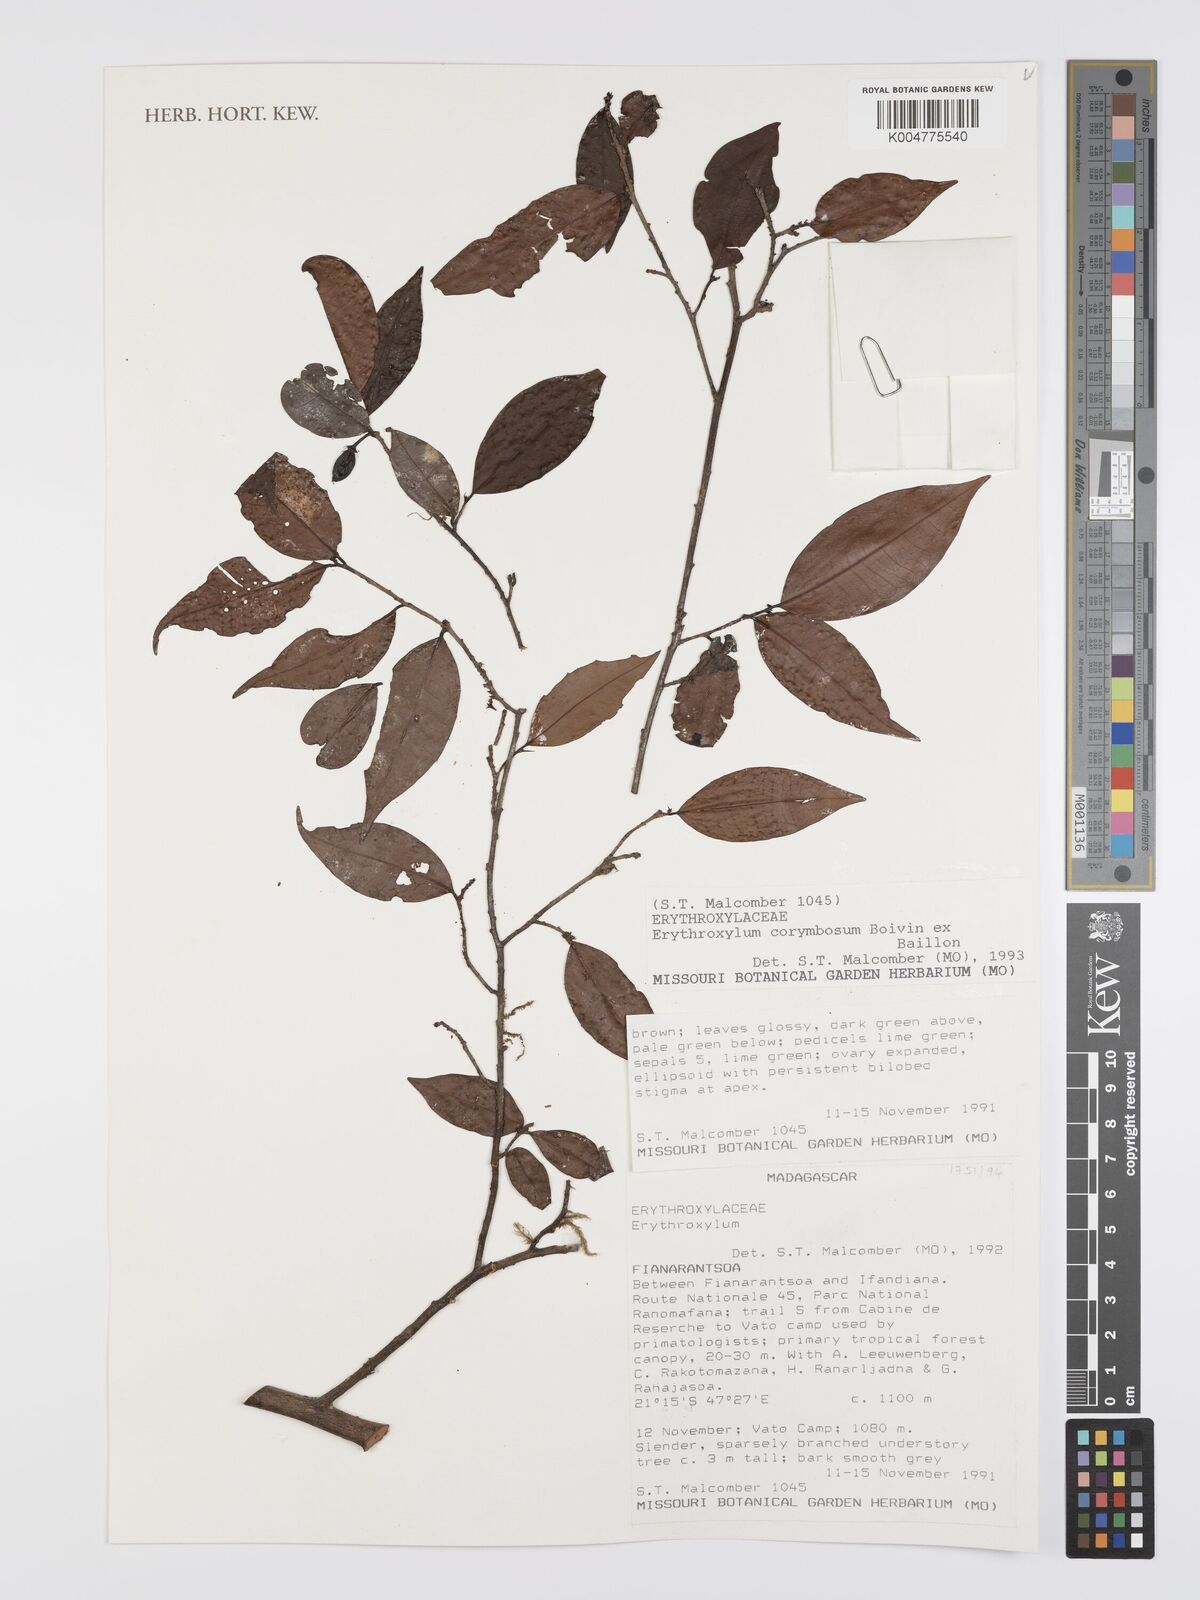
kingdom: Plantae
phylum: Tracheophyta
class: Magnoliopsida
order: Malpighiales
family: Erythroxylaceae
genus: Erythroxylum
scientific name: Erythroxylum corymbosum
